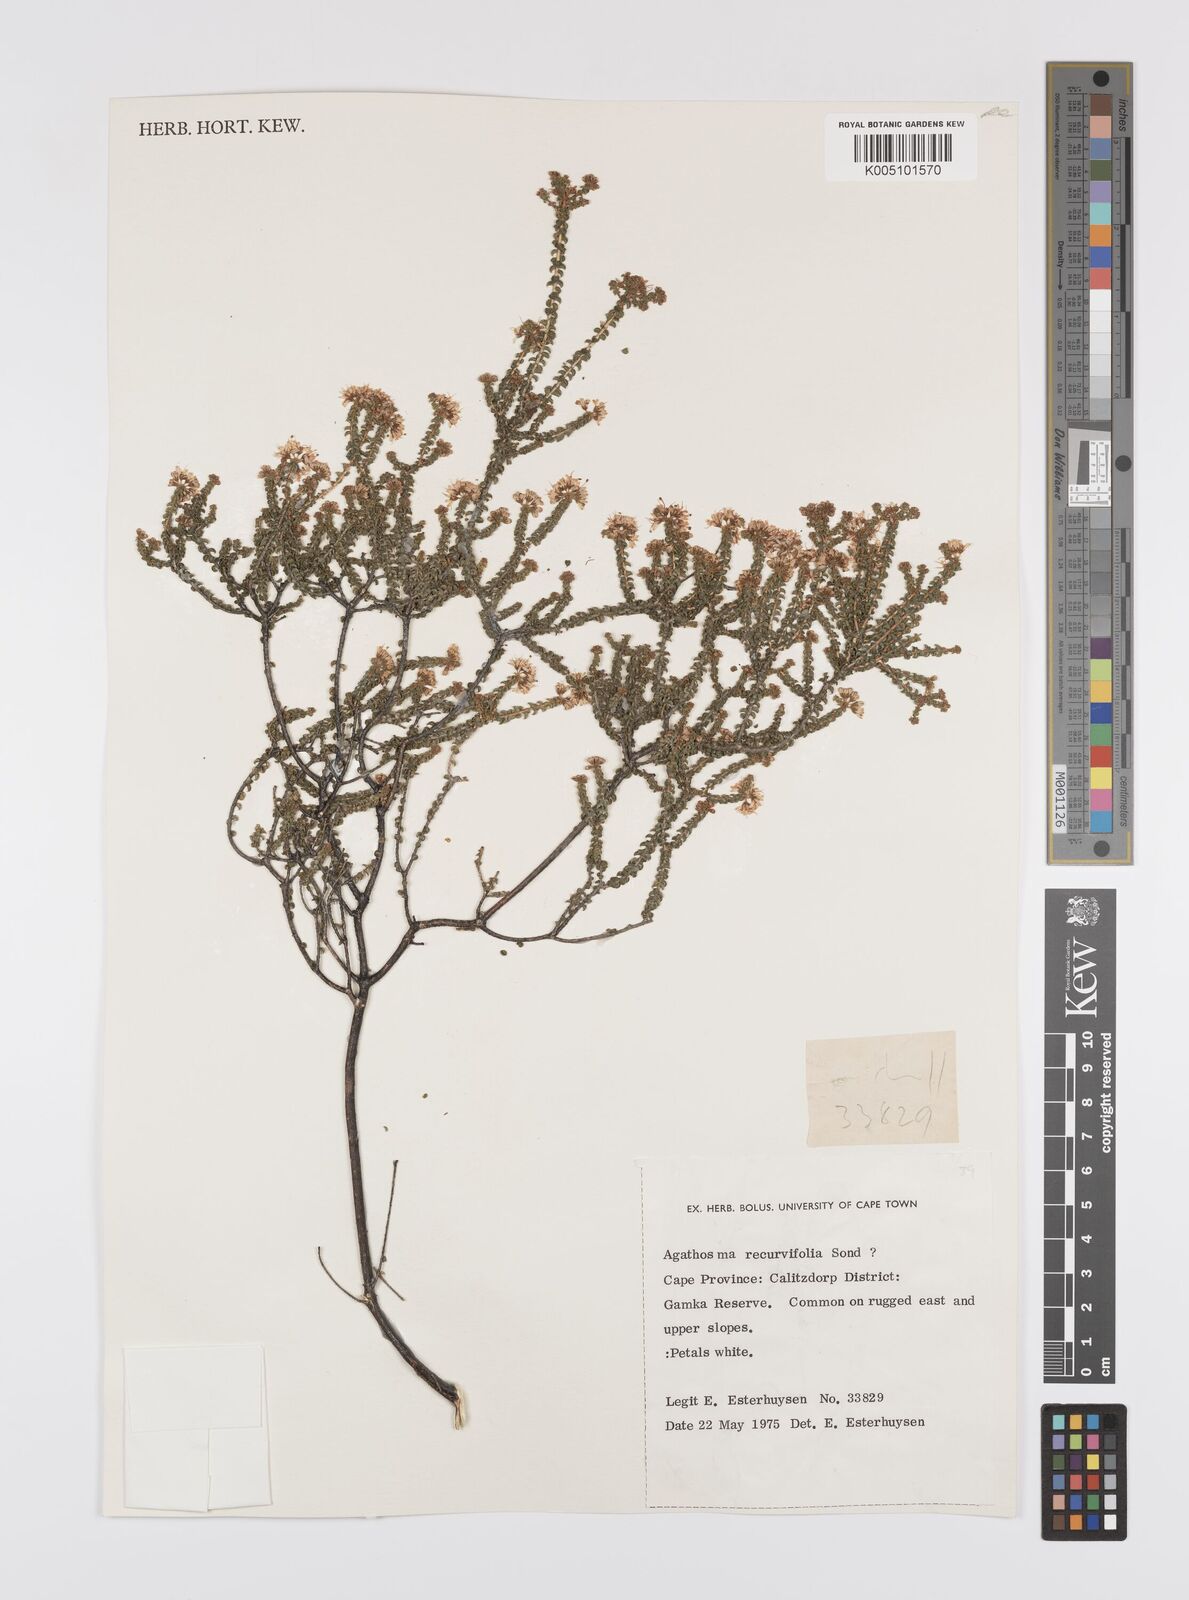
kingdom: Plantae
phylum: Tracheophyta
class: Magnoliopsida
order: Sapindales
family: Rutaceae
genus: Agathosma
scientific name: Agathosma recurvifolia
